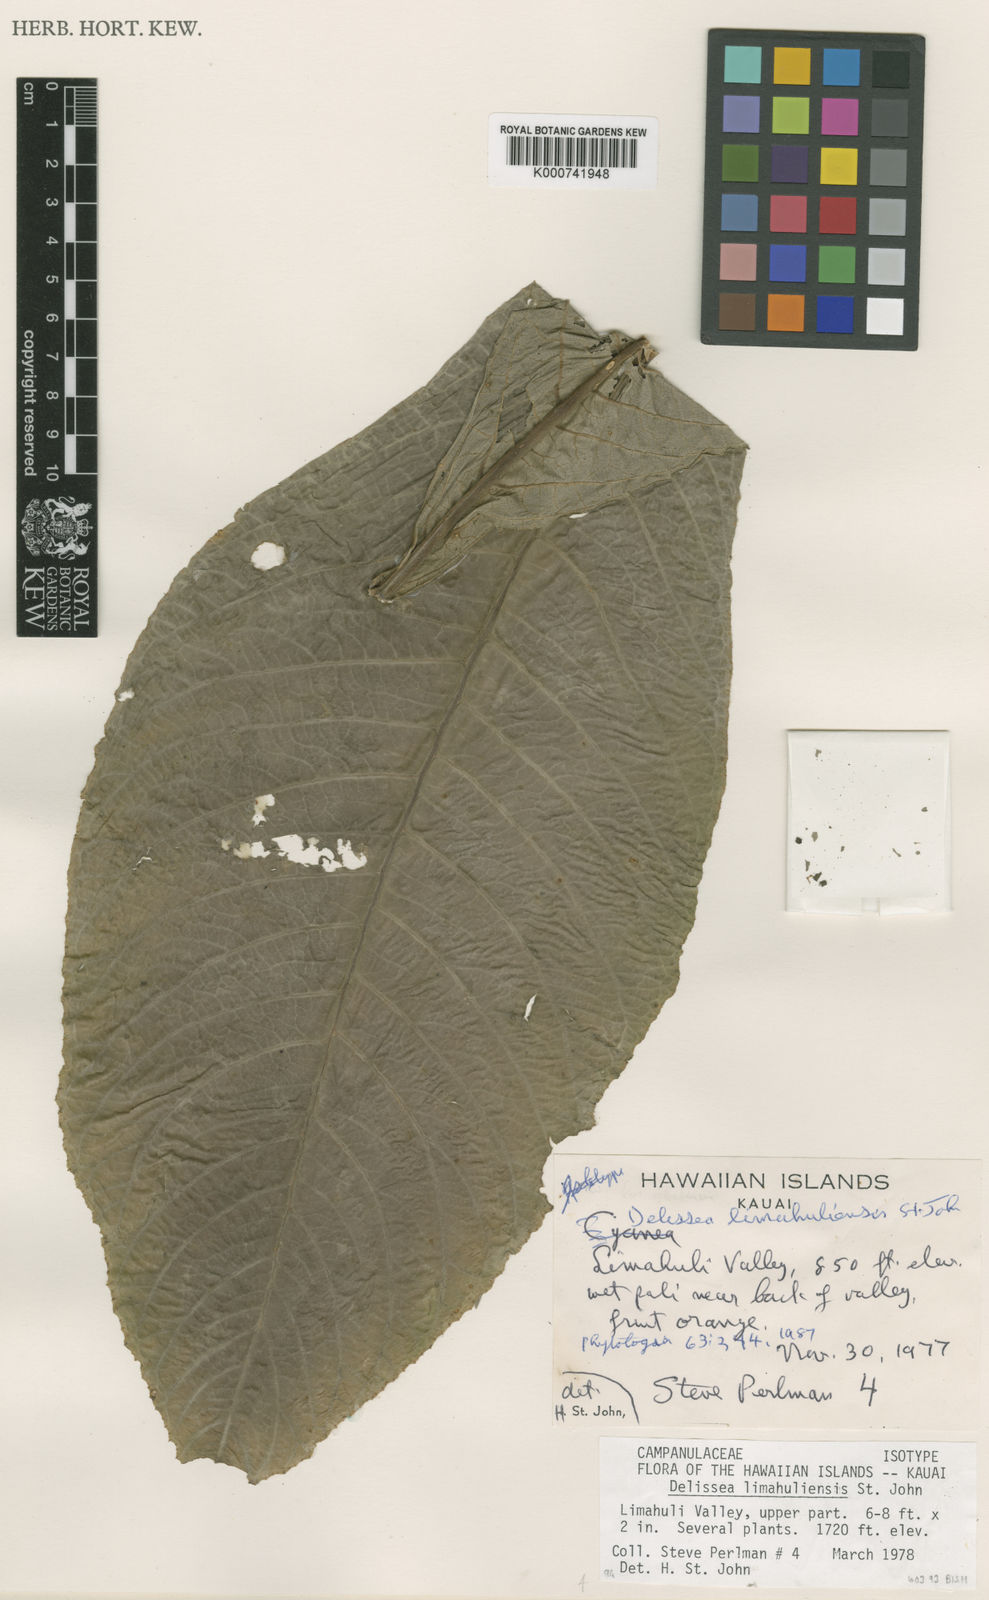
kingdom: Plantae
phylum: Tracheophyta
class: Magnoliopsida
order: Asterales
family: Campanulaceae
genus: Cyanea
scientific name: Cyanea fissa
